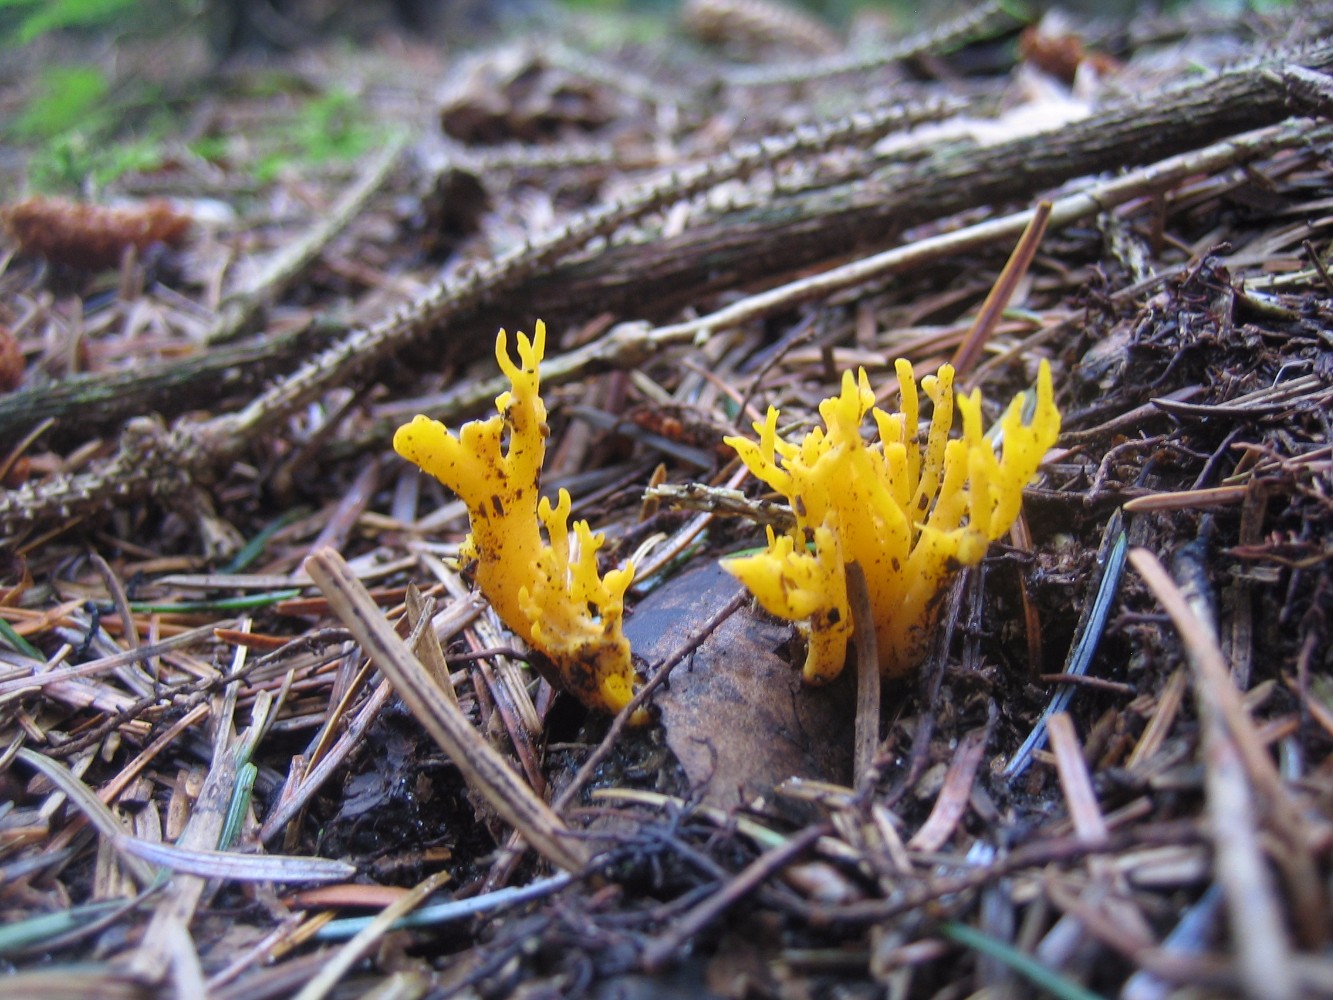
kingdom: Fungi
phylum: Basidiomycota
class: Dacrymycetes
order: Dacrymycetales
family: Dacrymycetaceae
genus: Calocera
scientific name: Calocera viscosa
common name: almindelig guldgaffel
